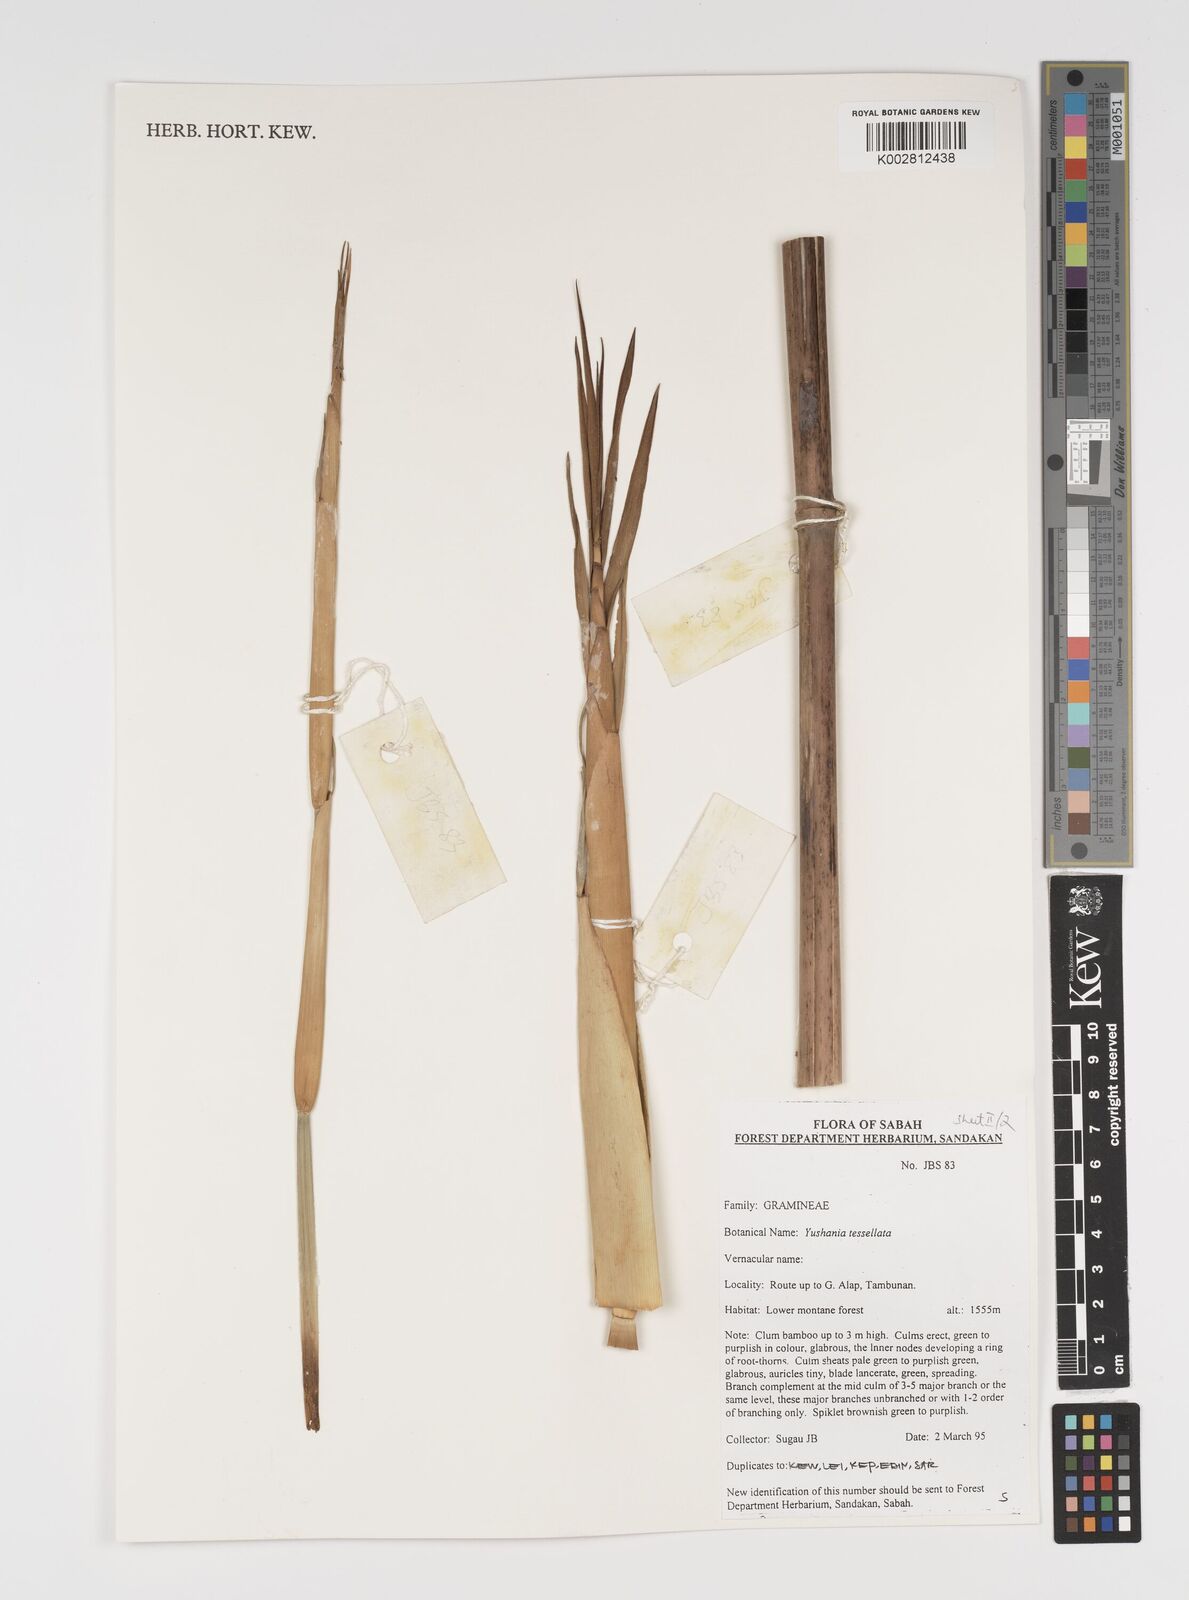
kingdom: Plantae
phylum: Tracheophyta
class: Liliopsida
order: Poales
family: Poaceae
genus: Yushania
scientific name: Yushania tessellata
